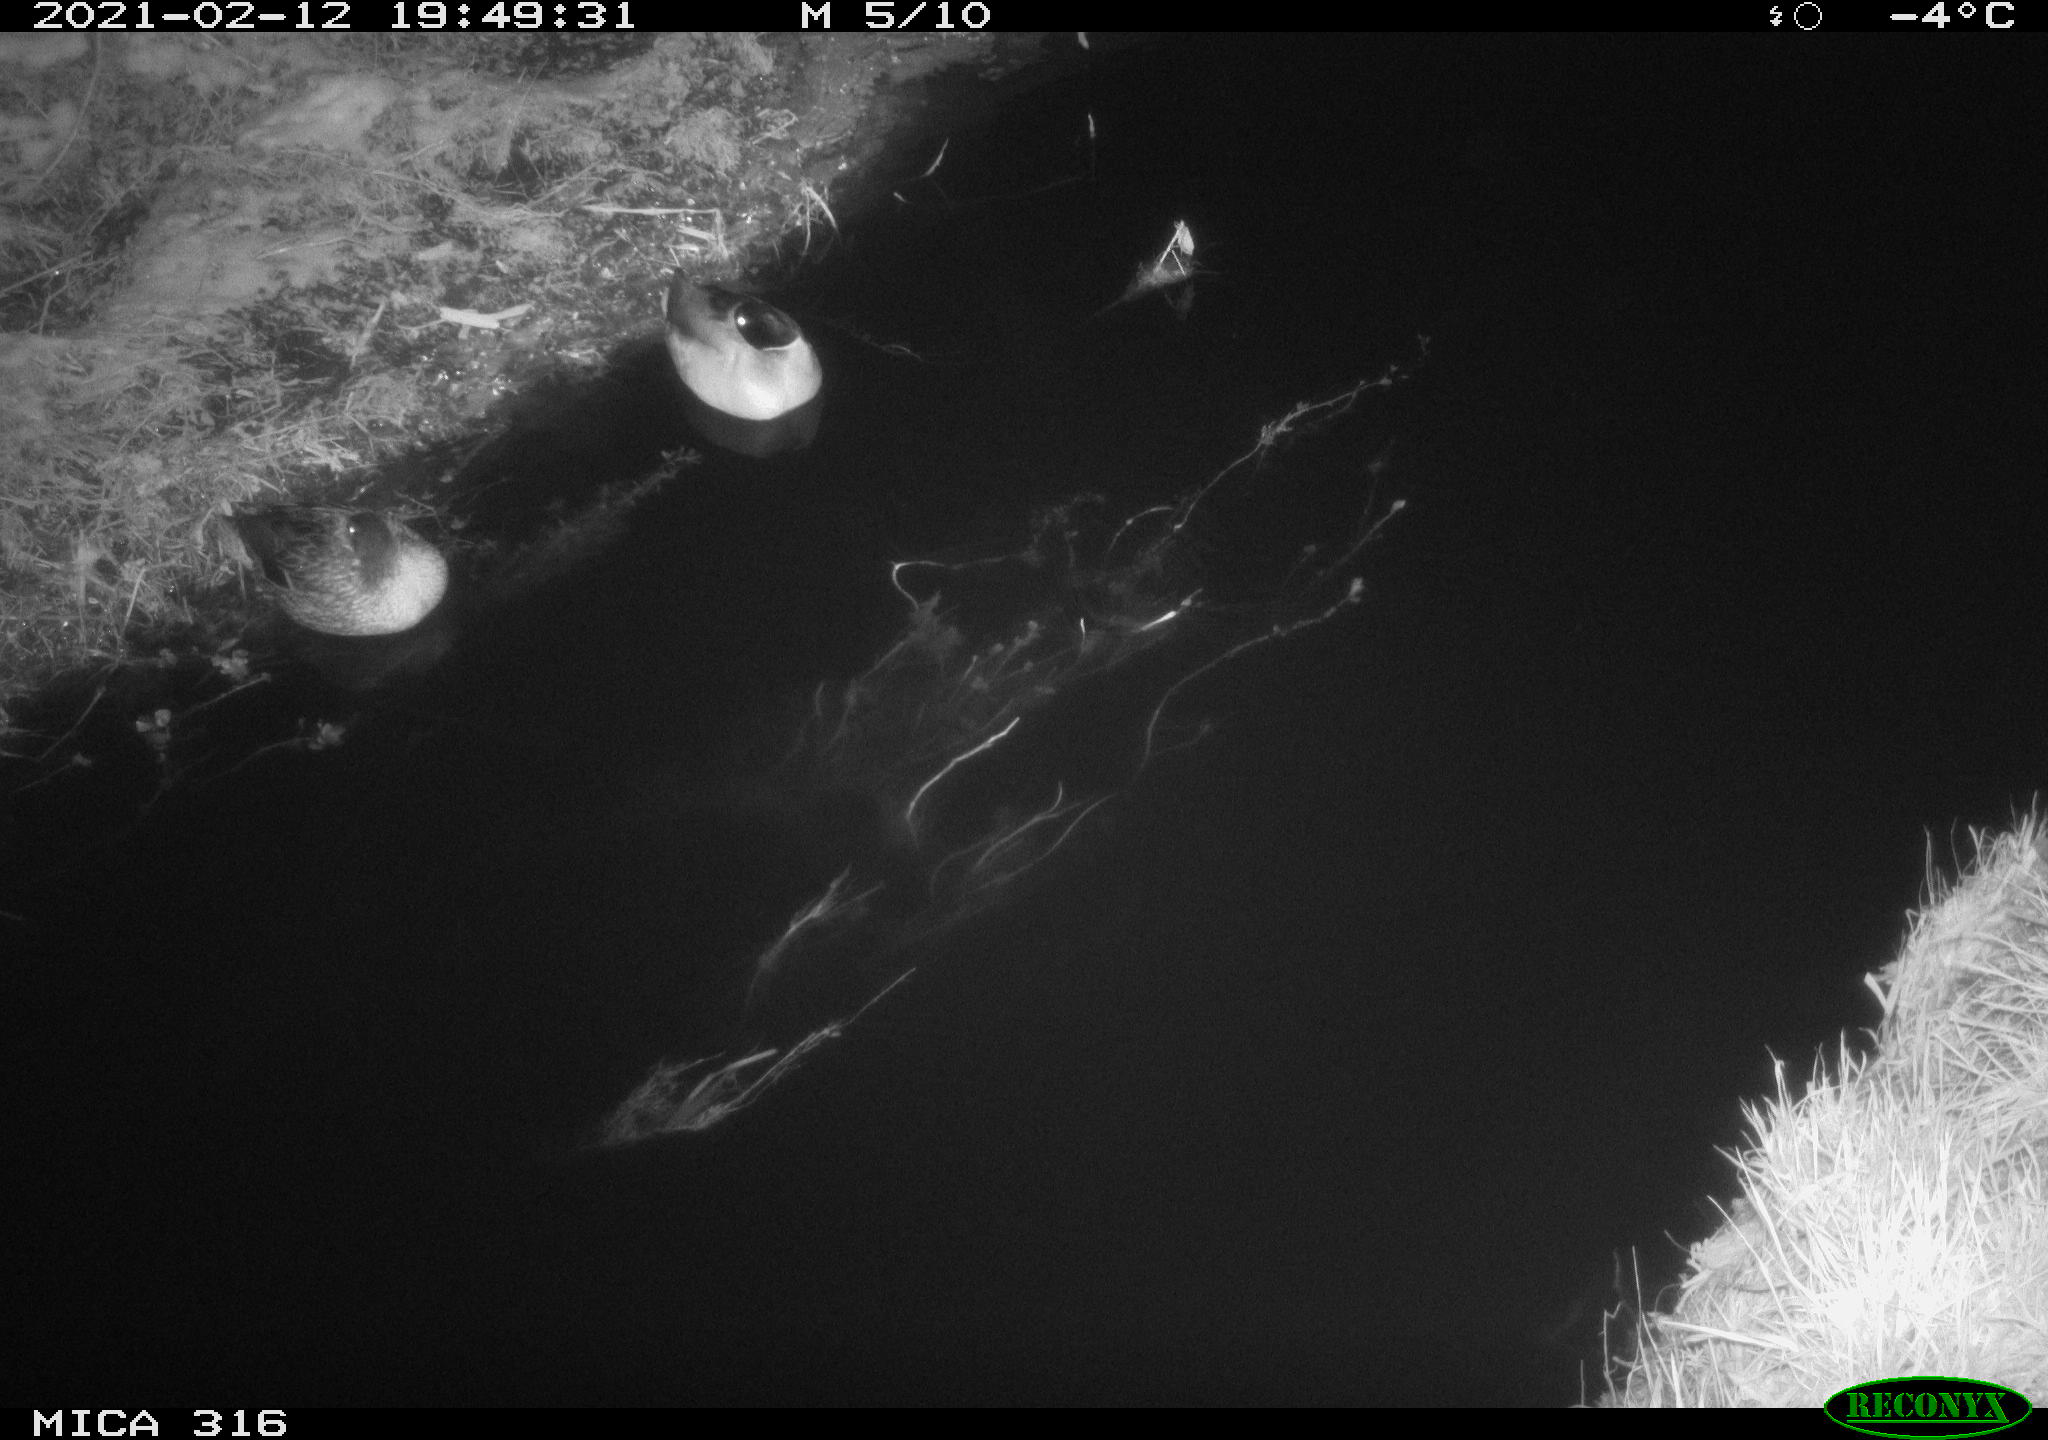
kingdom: Animalia
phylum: Chordata
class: Aves
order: Anseriformes
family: Anatidae
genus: Anas
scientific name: Anas platyrhynchos
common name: Mallard
